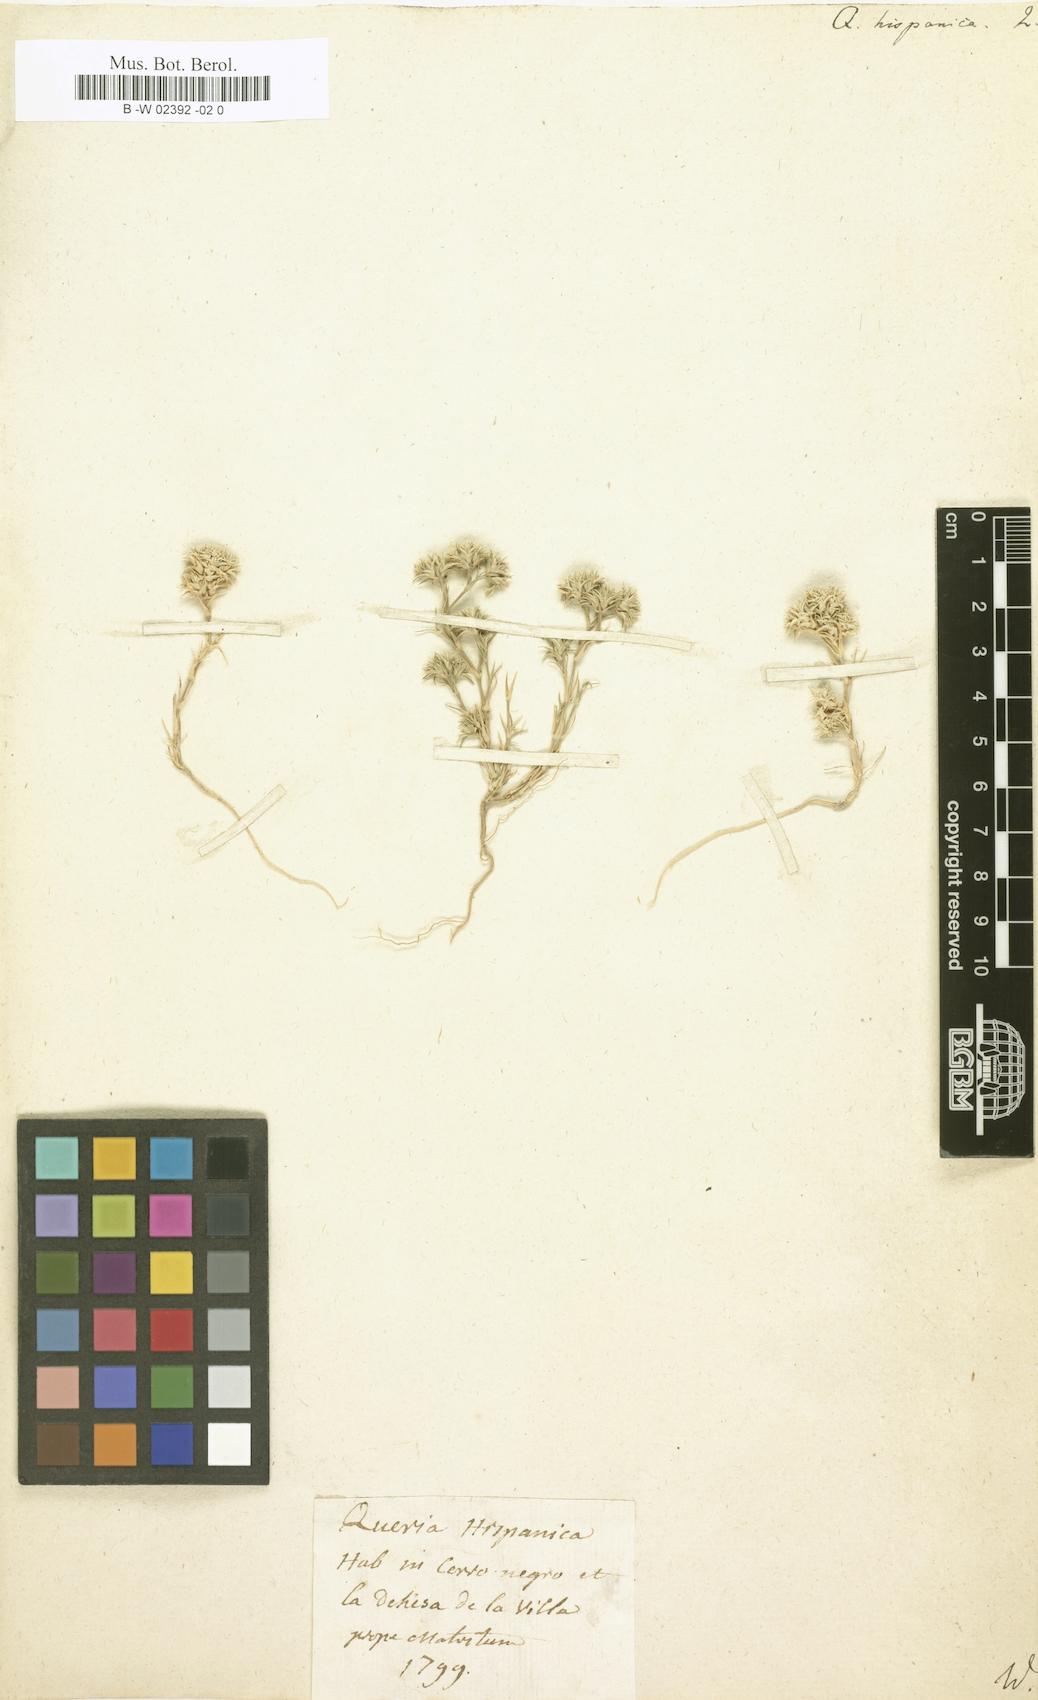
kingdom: Plantae
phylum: Tracheophyta
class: Magnoliopsida
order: Caryophyllales
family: Caryophyllaceae
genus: Minuartia
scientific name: Minuartia hamata
